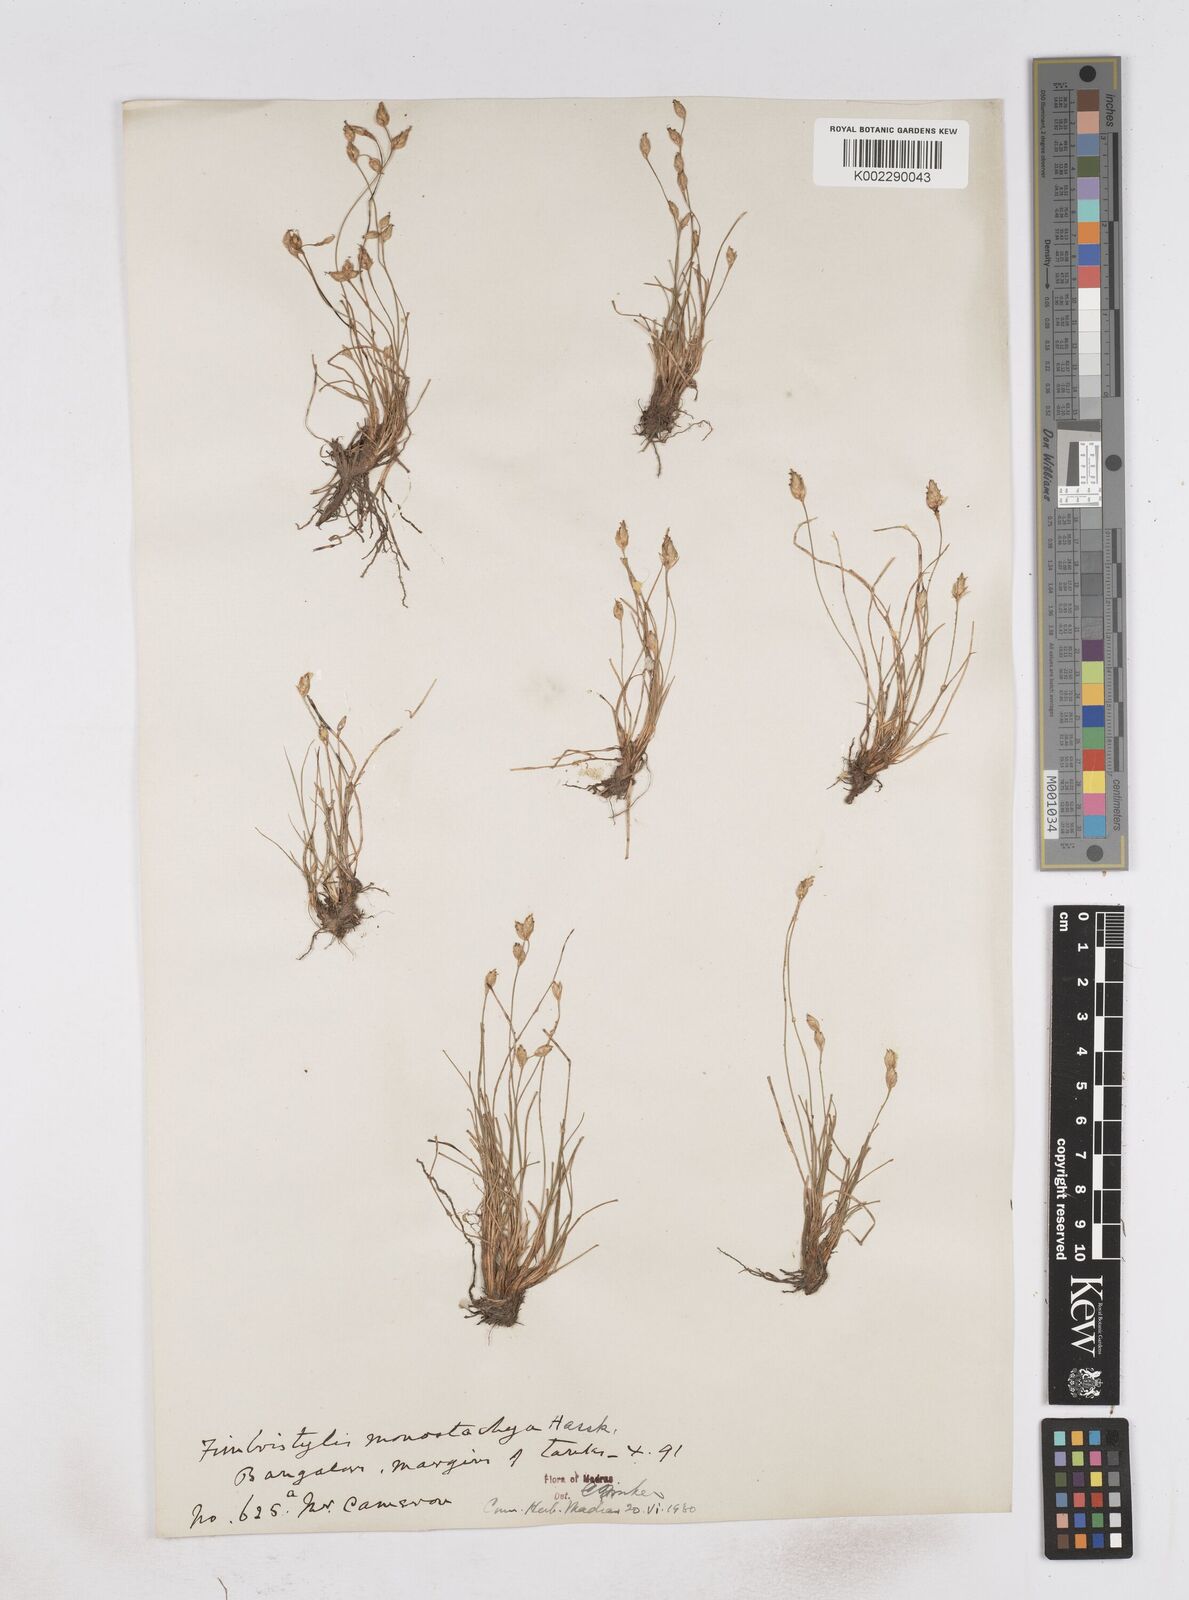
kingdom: Plantae
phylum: Tracheophyta
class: Liliopsida
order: Poales
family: Cyperaceae
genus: Abildgaardia
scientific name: Abildgaardia ovata
